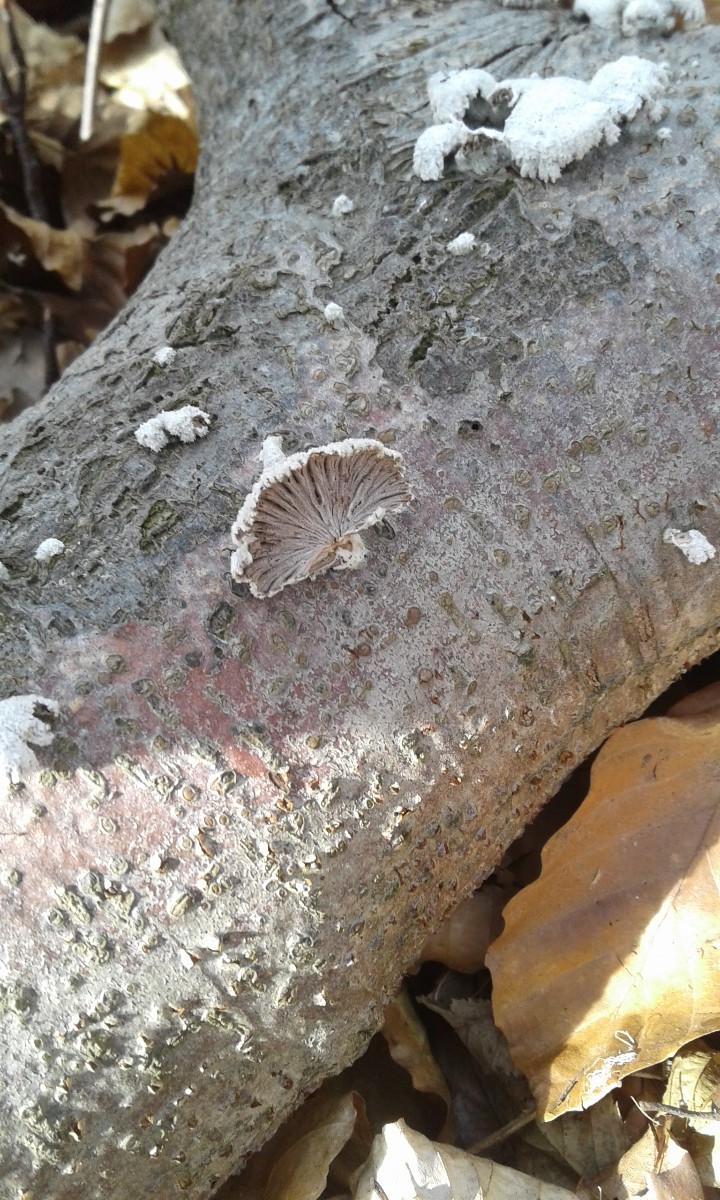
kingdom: Fungi
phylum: Basidiomycota
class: Agaricomycetes
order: Agaricales
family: Schizophyllaceae
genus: Schizophyllum
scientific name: Schizophyllum commune
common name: kløvblad
